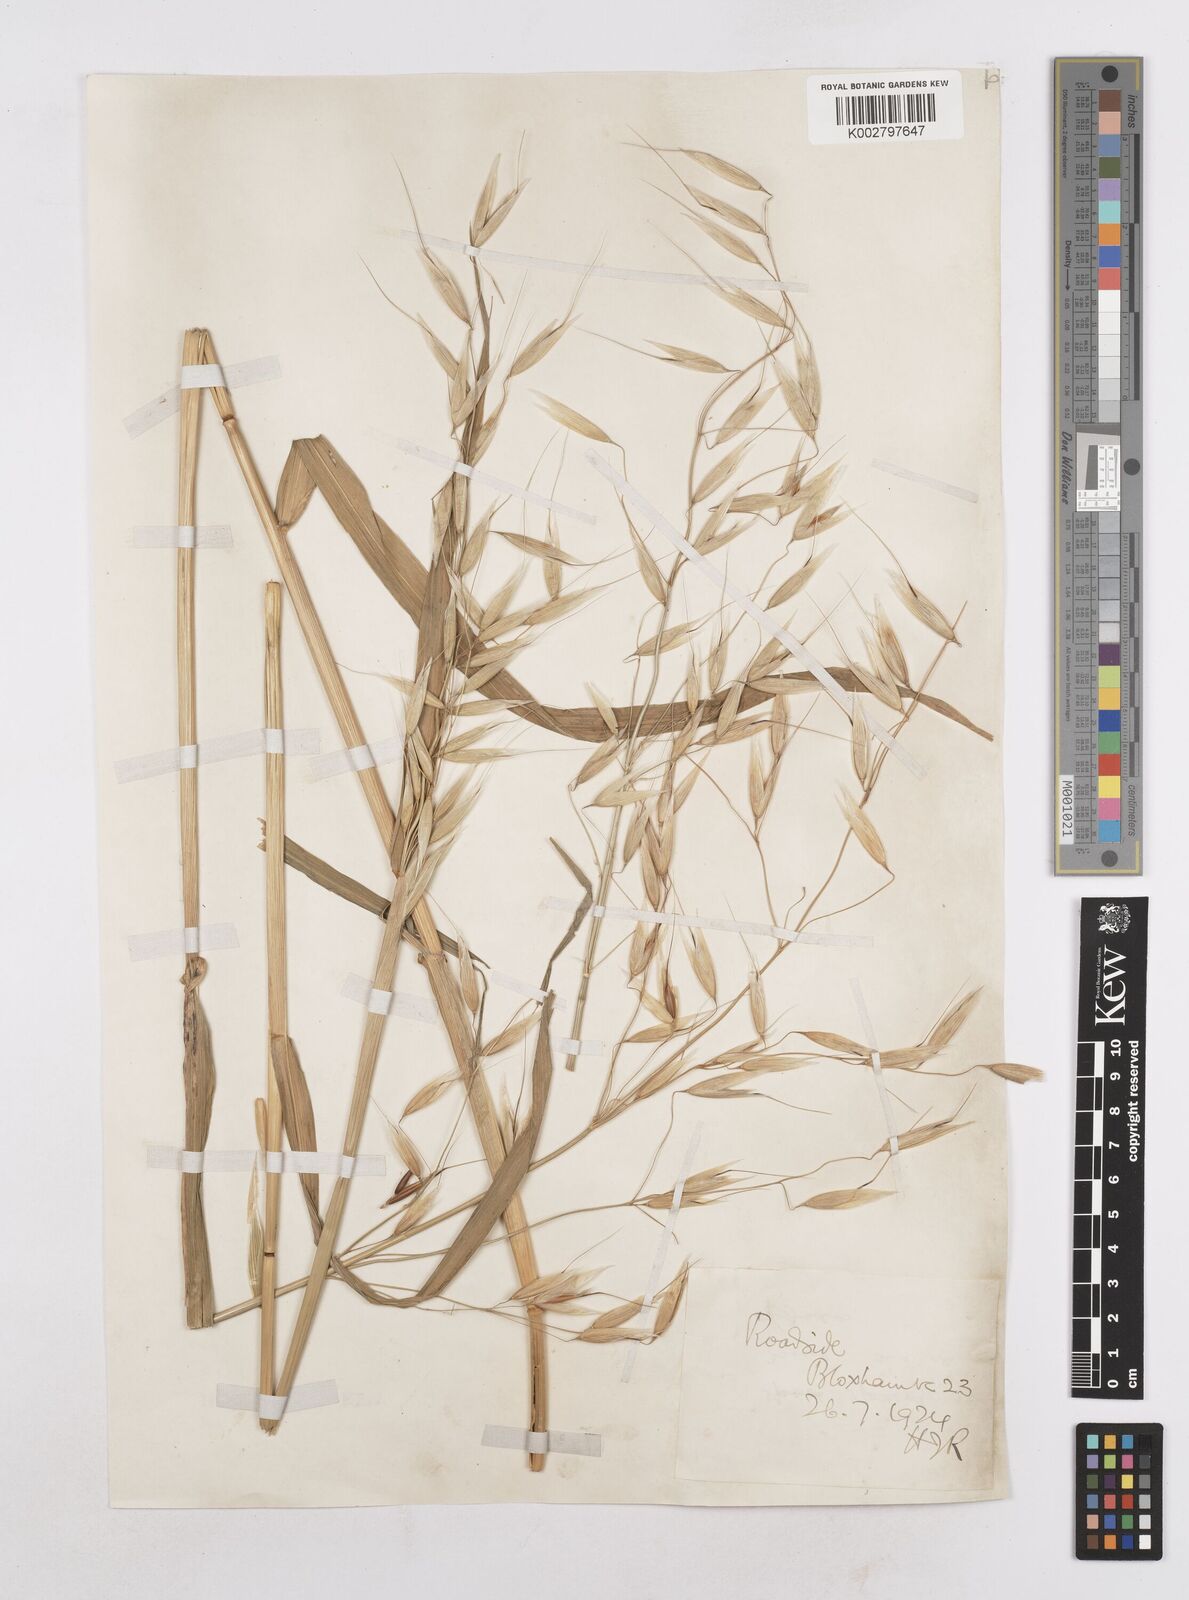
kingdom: Plantae
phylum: Tracheophyta
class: Liliopsida
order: Poales
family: Poaceae
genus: Avena
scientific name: Avena byzantina
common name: Algerian oat
